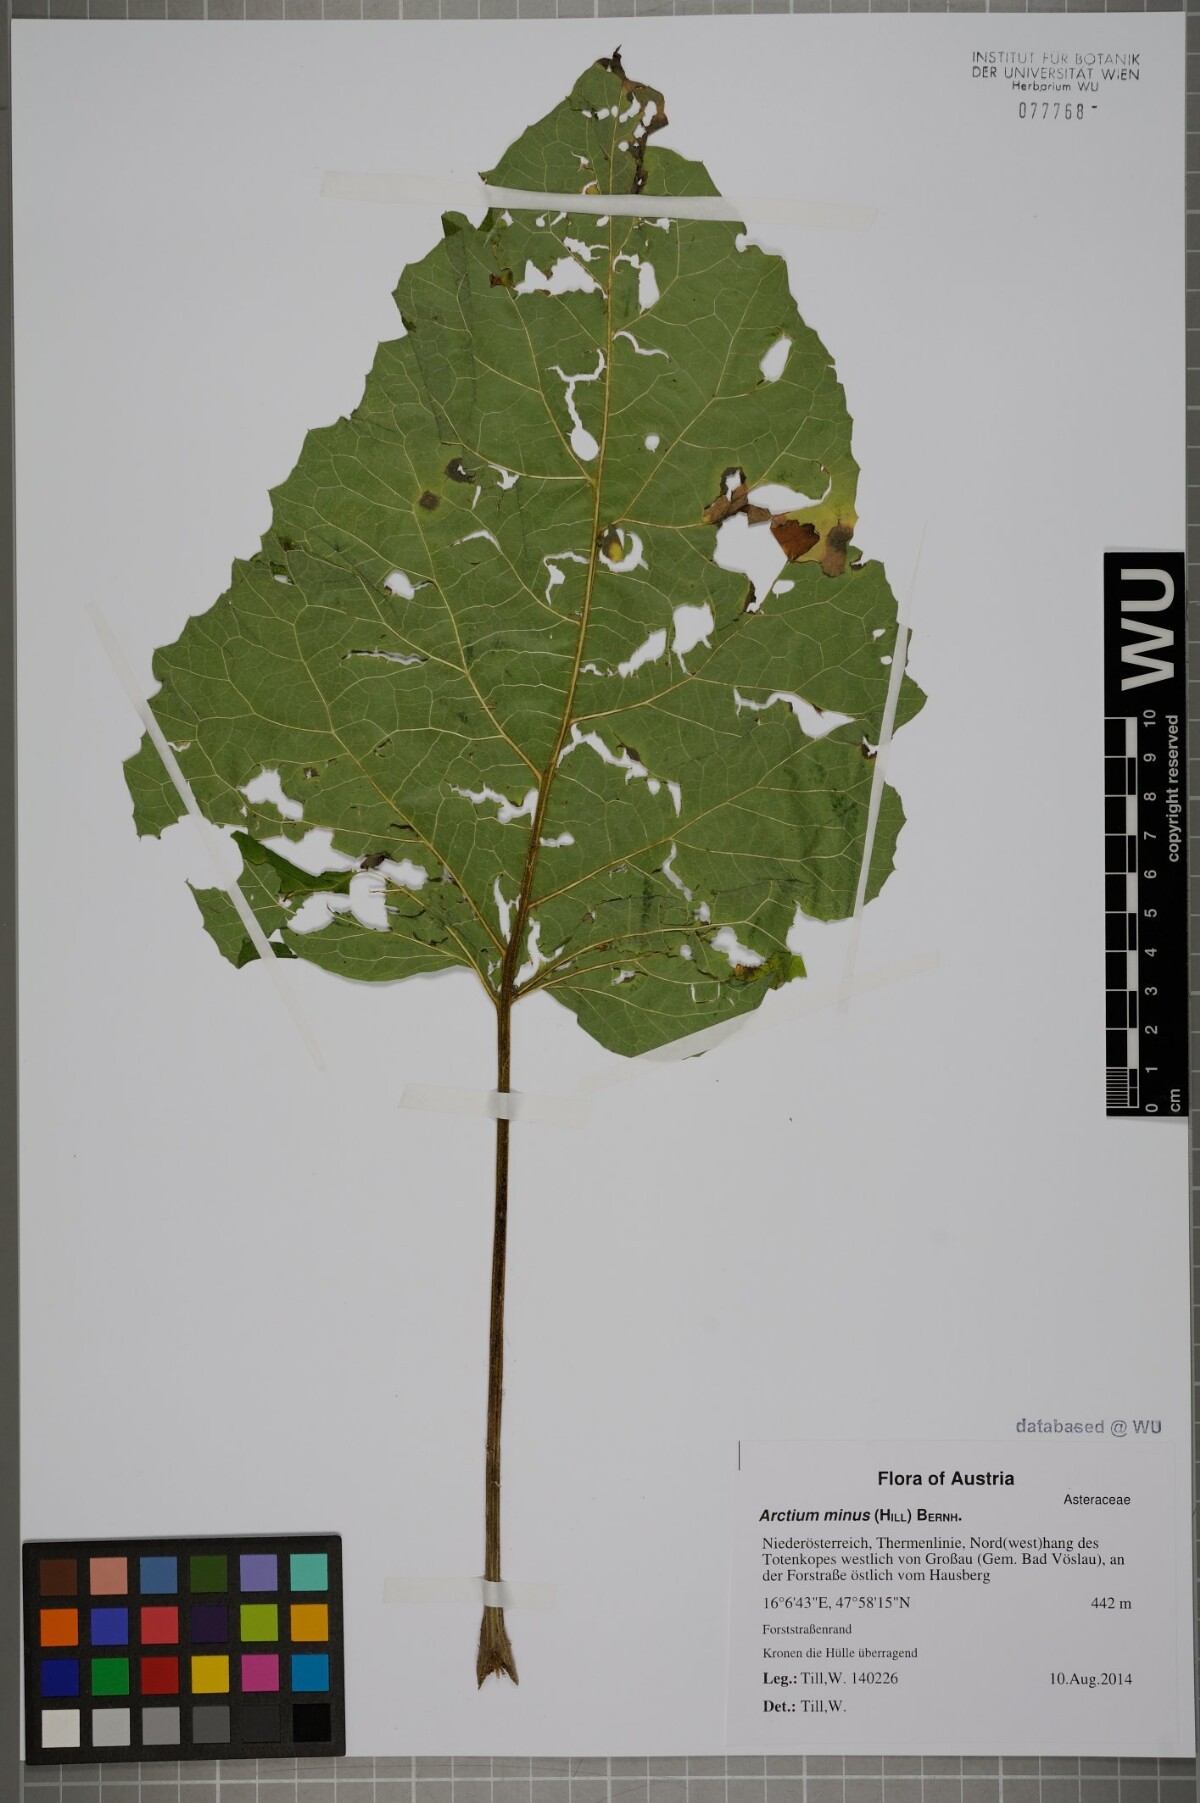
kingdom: Plantae
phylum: Tracheophyta
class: Magnoliopsida
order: Asterales
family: Asteraceae
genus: Arctium
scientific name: Arctium minus
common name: Lesser burdock
